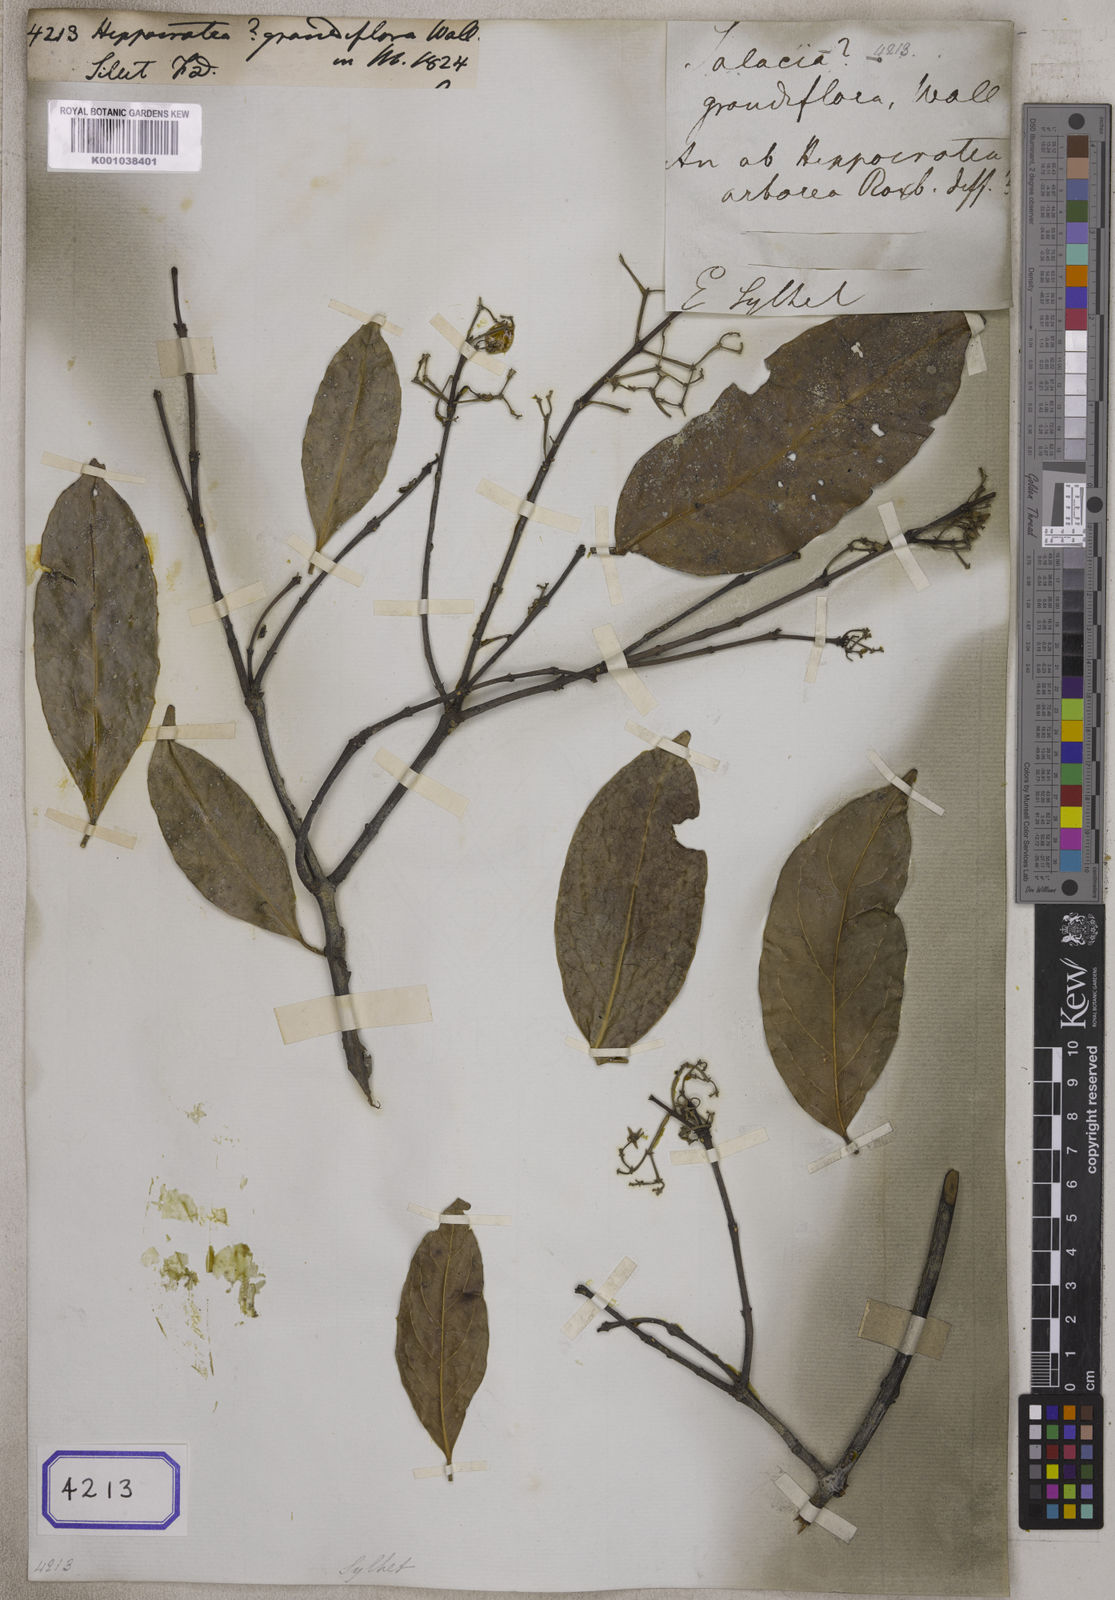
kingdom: Plantae
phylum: Tracheophyta
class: Magnoliopsida
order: Celastrales
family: Celastraceae
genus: Loeseneriella
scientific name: Loeseneriella obtusifolia
